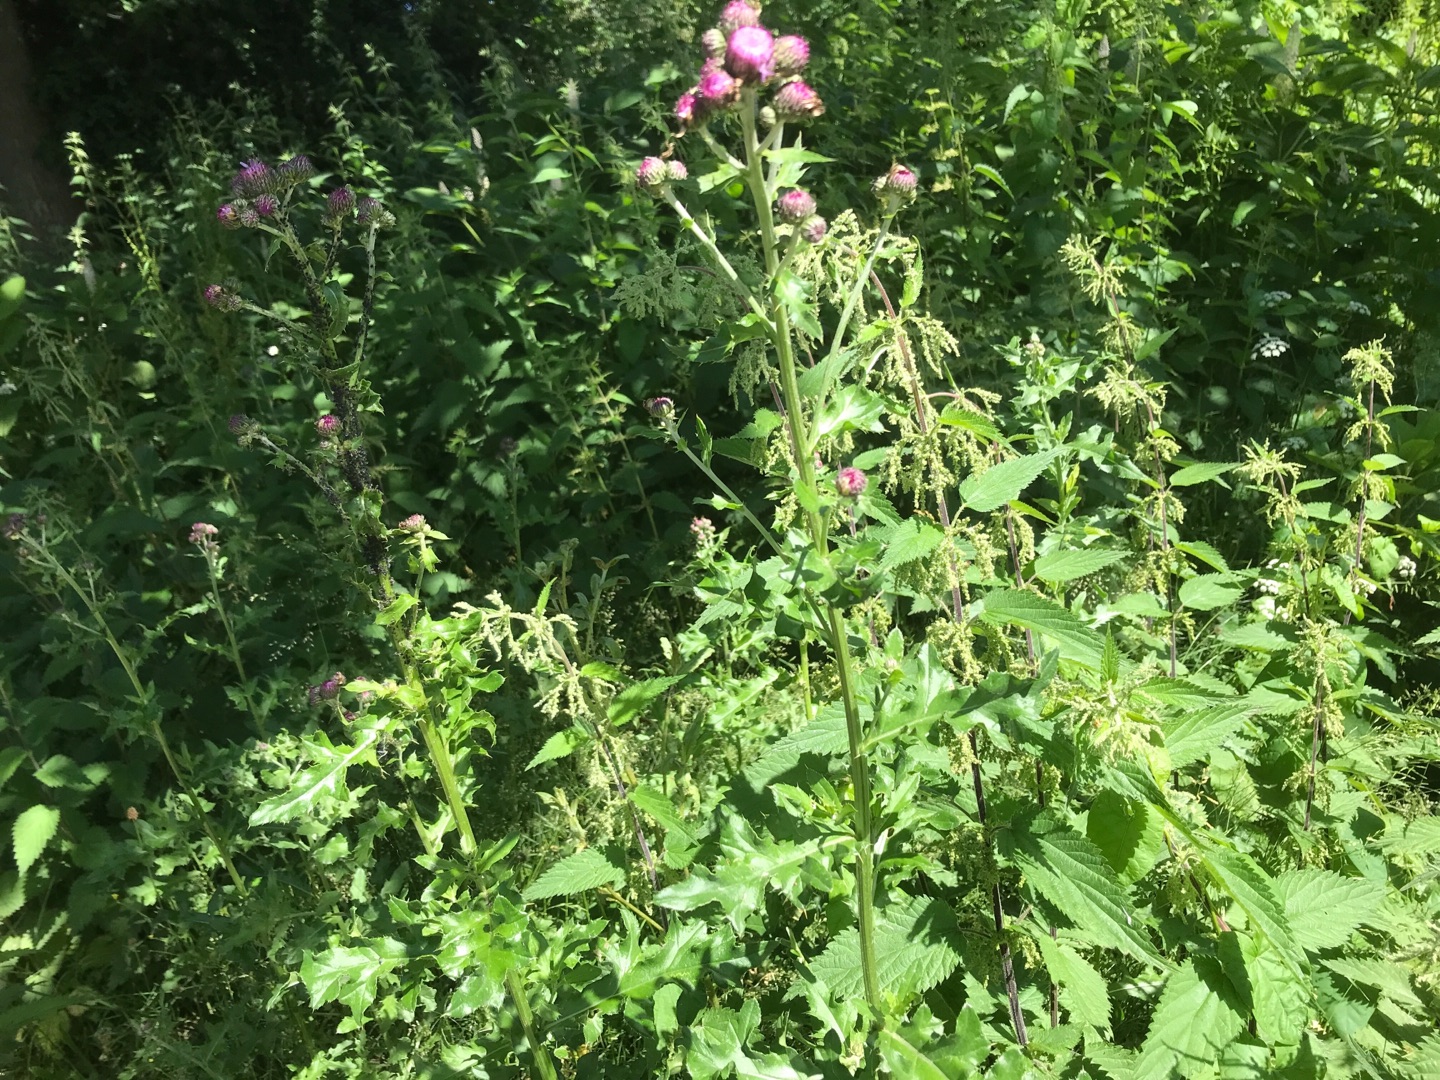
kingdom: Plantae
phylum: Tracheophyta
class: Magnoliopsida
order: Asterales
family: Asteraceae
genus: Cirsium
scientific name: Cirsium arvense
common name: Ager-tidsel
